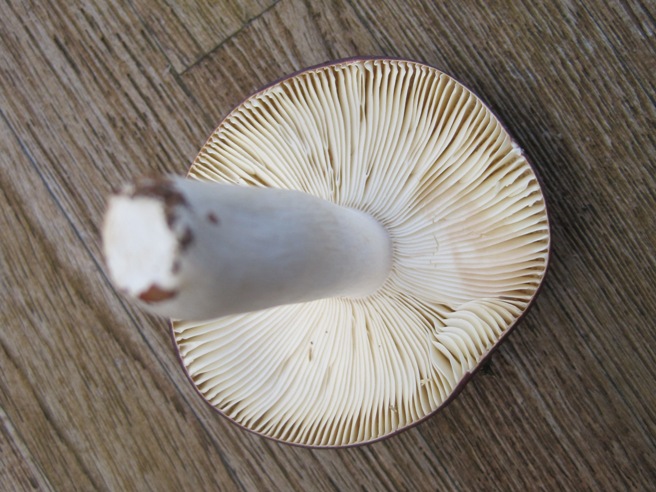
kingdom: Fungi
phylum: Basidiomycota
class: Agaricomycetes
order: Russulales
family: Russulaceae
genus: Russula
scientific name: Russula brunneoviolacea
